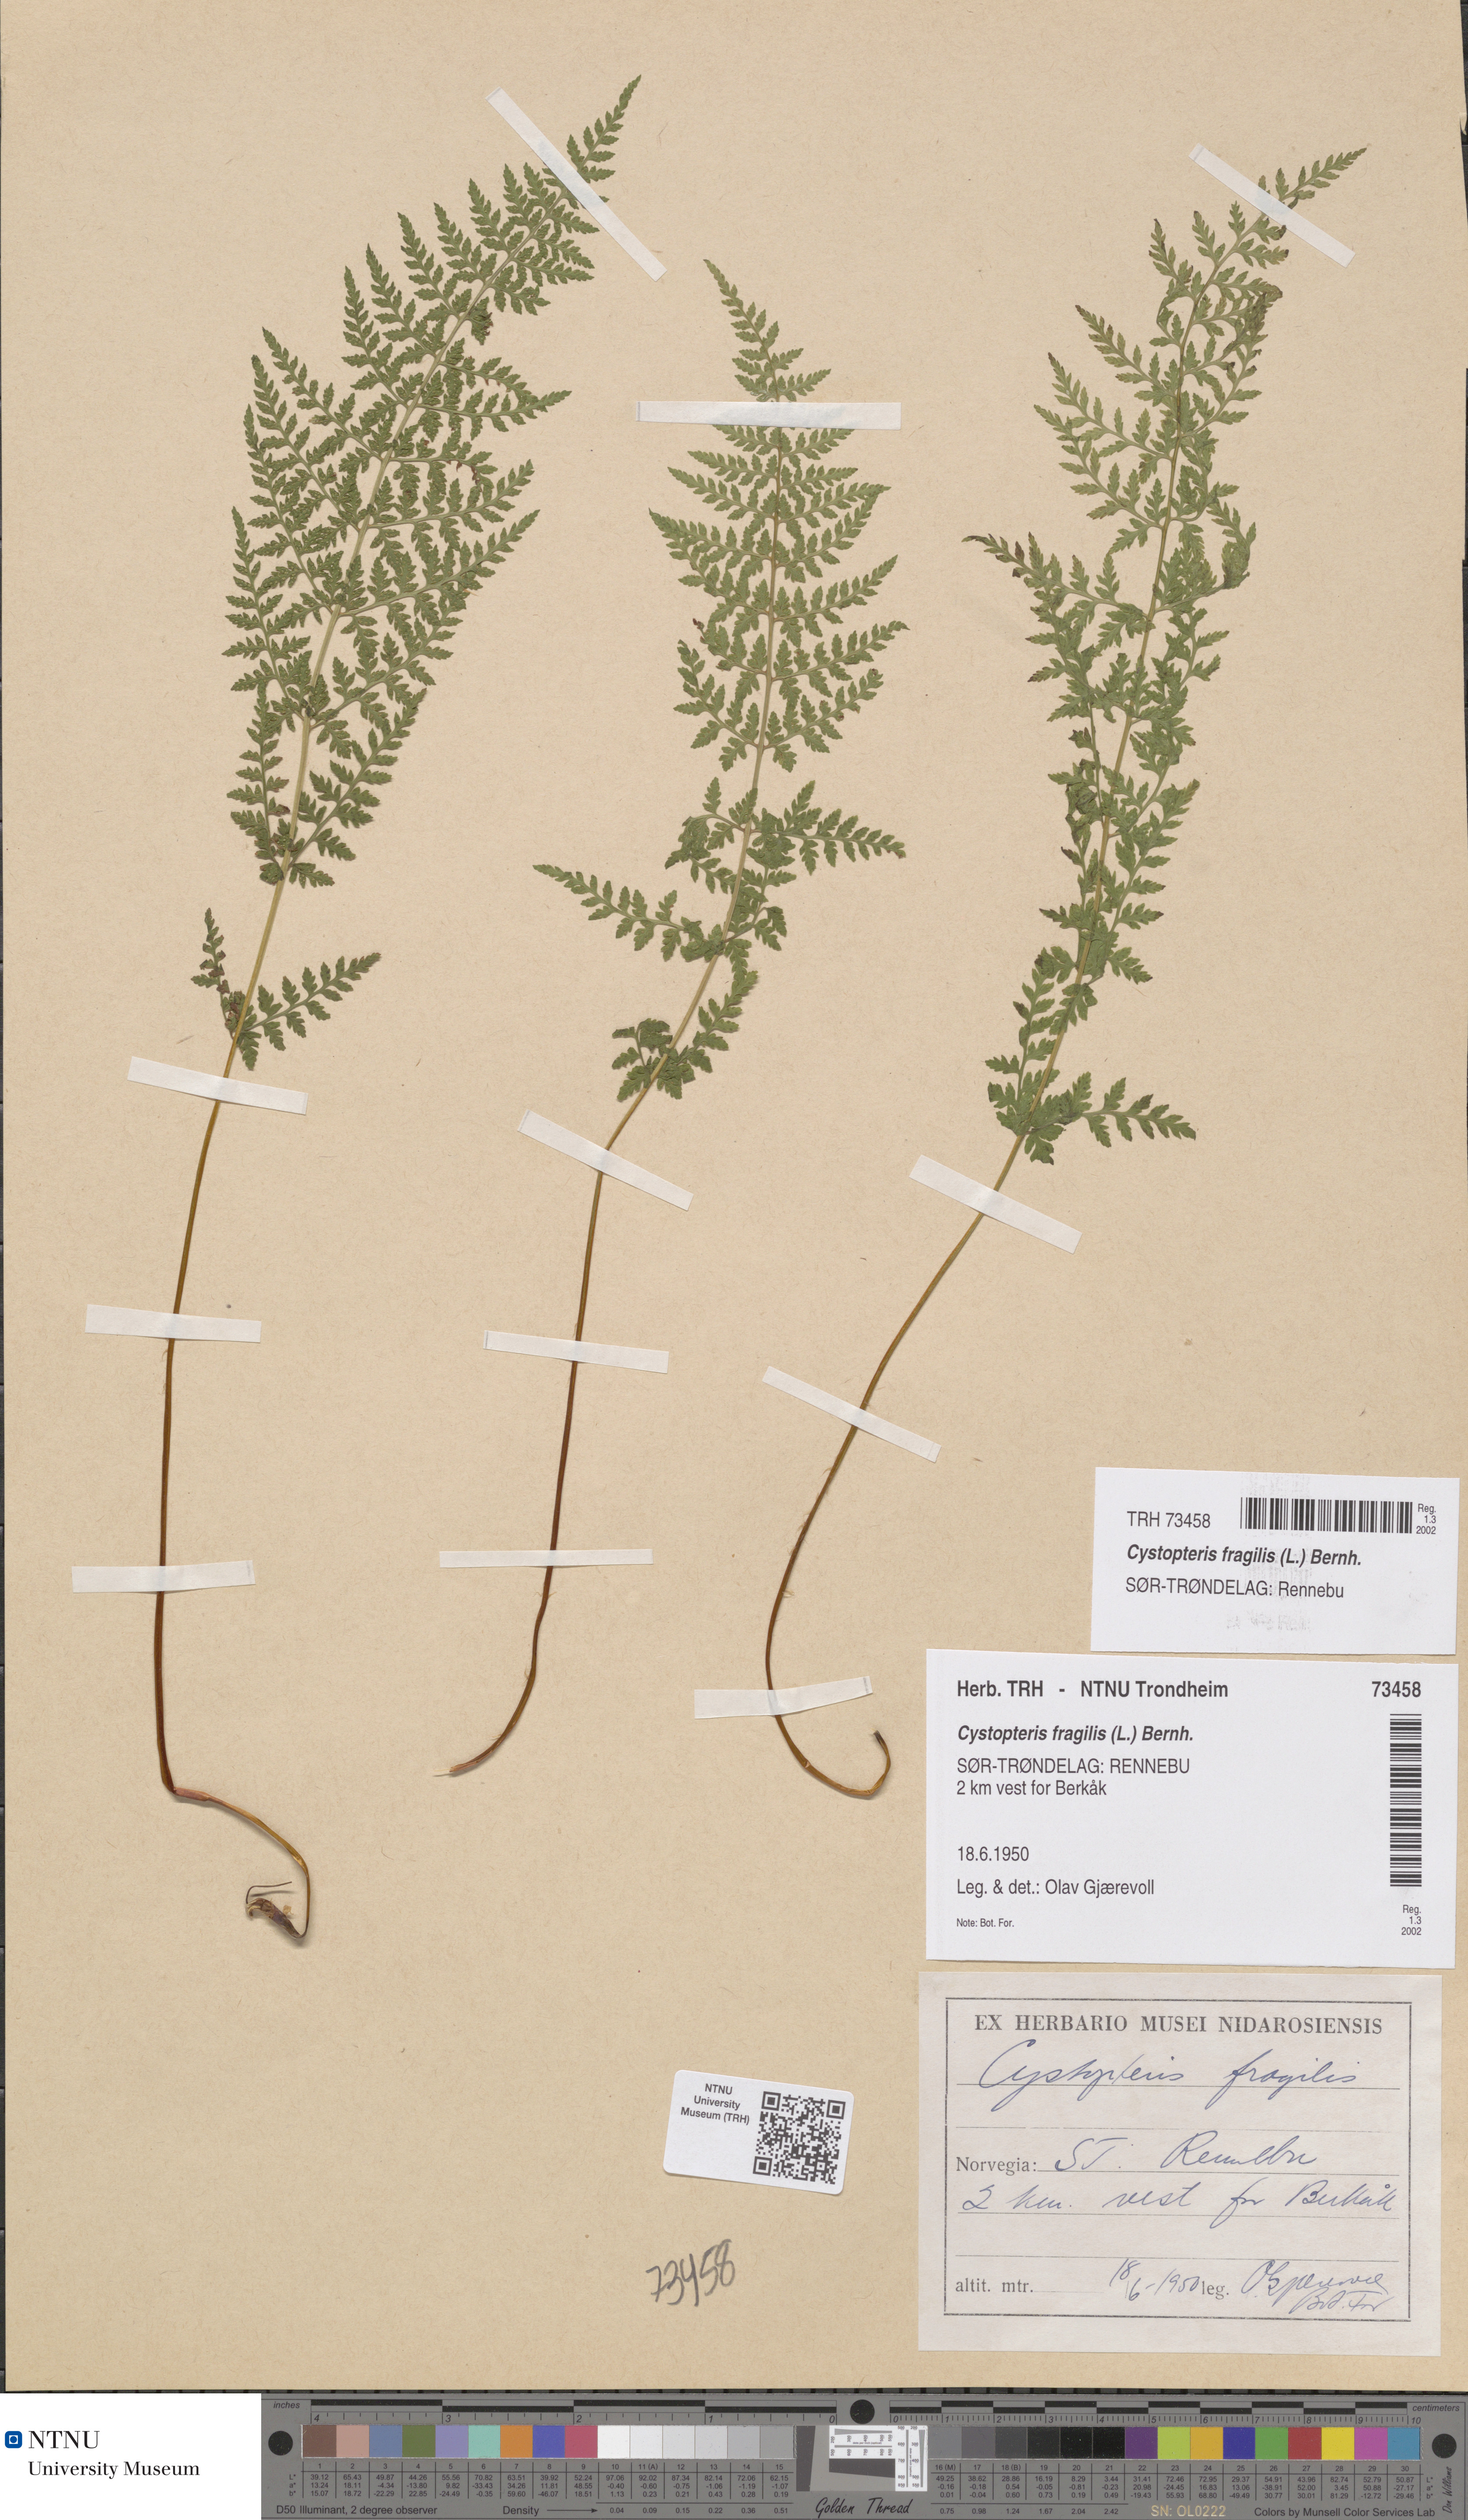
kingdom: Plantae
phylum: Tracheophyta
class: Polypodiopsida
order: Polypodiales
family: Cystopteridaceae
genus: Cystopteris
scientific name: Cystopteris fragilis
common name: Brittle bladder fern
